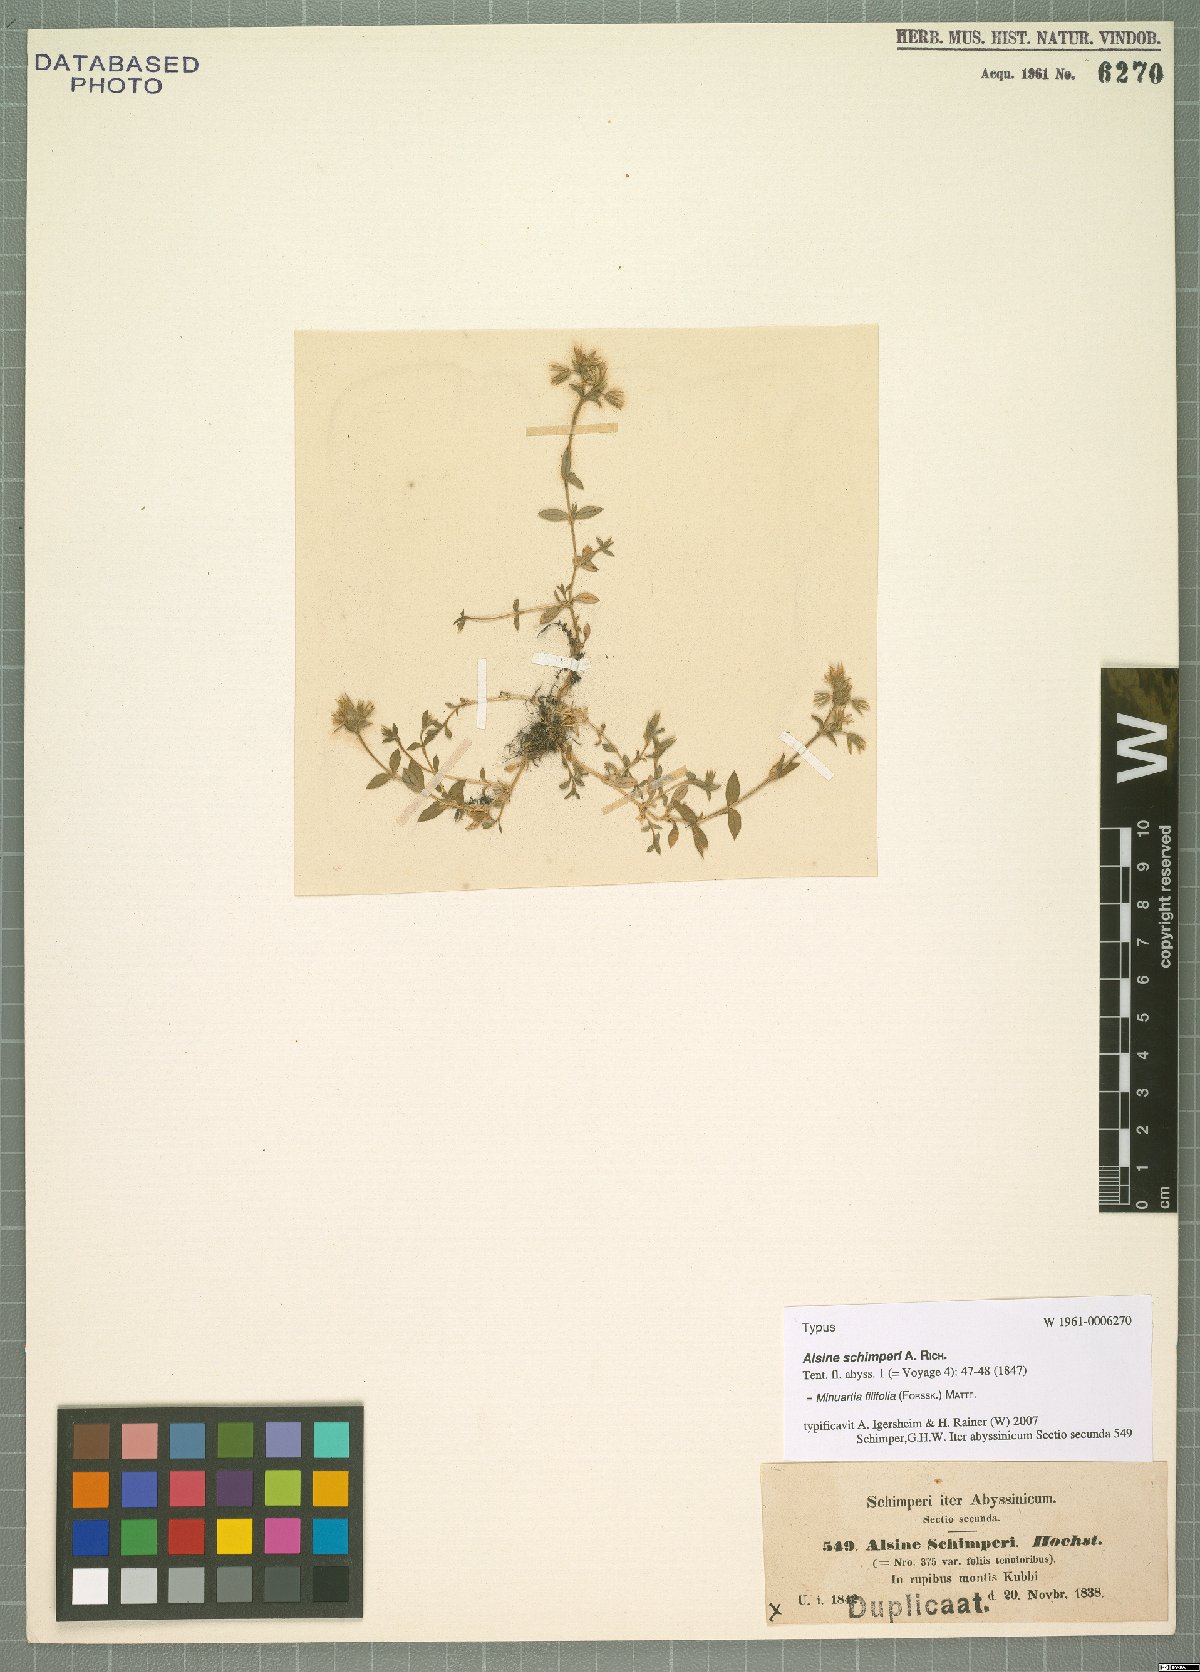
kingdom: Plantae
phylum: Tracheophyta
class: Magnoliopsida
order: Caryophyllales
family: Caryophyllaceae
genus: Minuartia
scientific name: Minuartia filifolia
